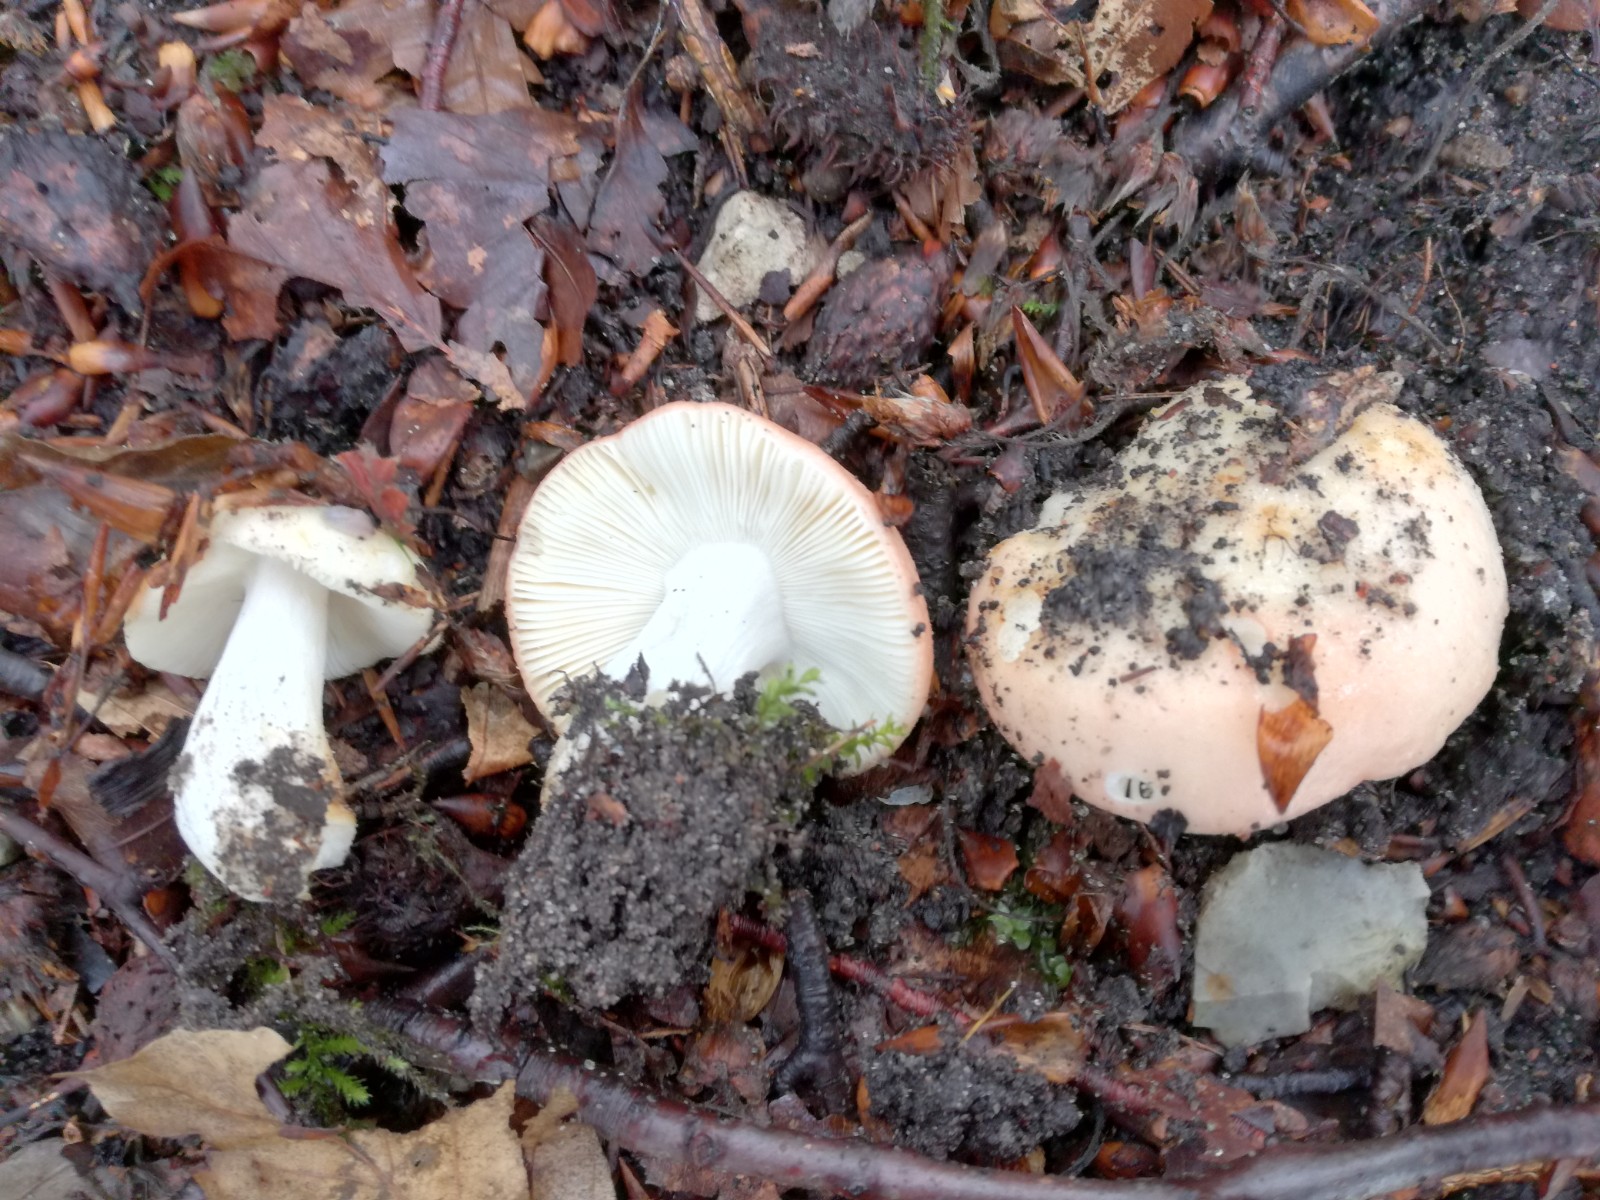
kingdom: Fungi
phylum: Basidiomycota
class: Agaricomycetes
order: Russulales
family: Russulaceae
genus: Russula
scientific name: Russula maculata
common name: plettet skørhat
